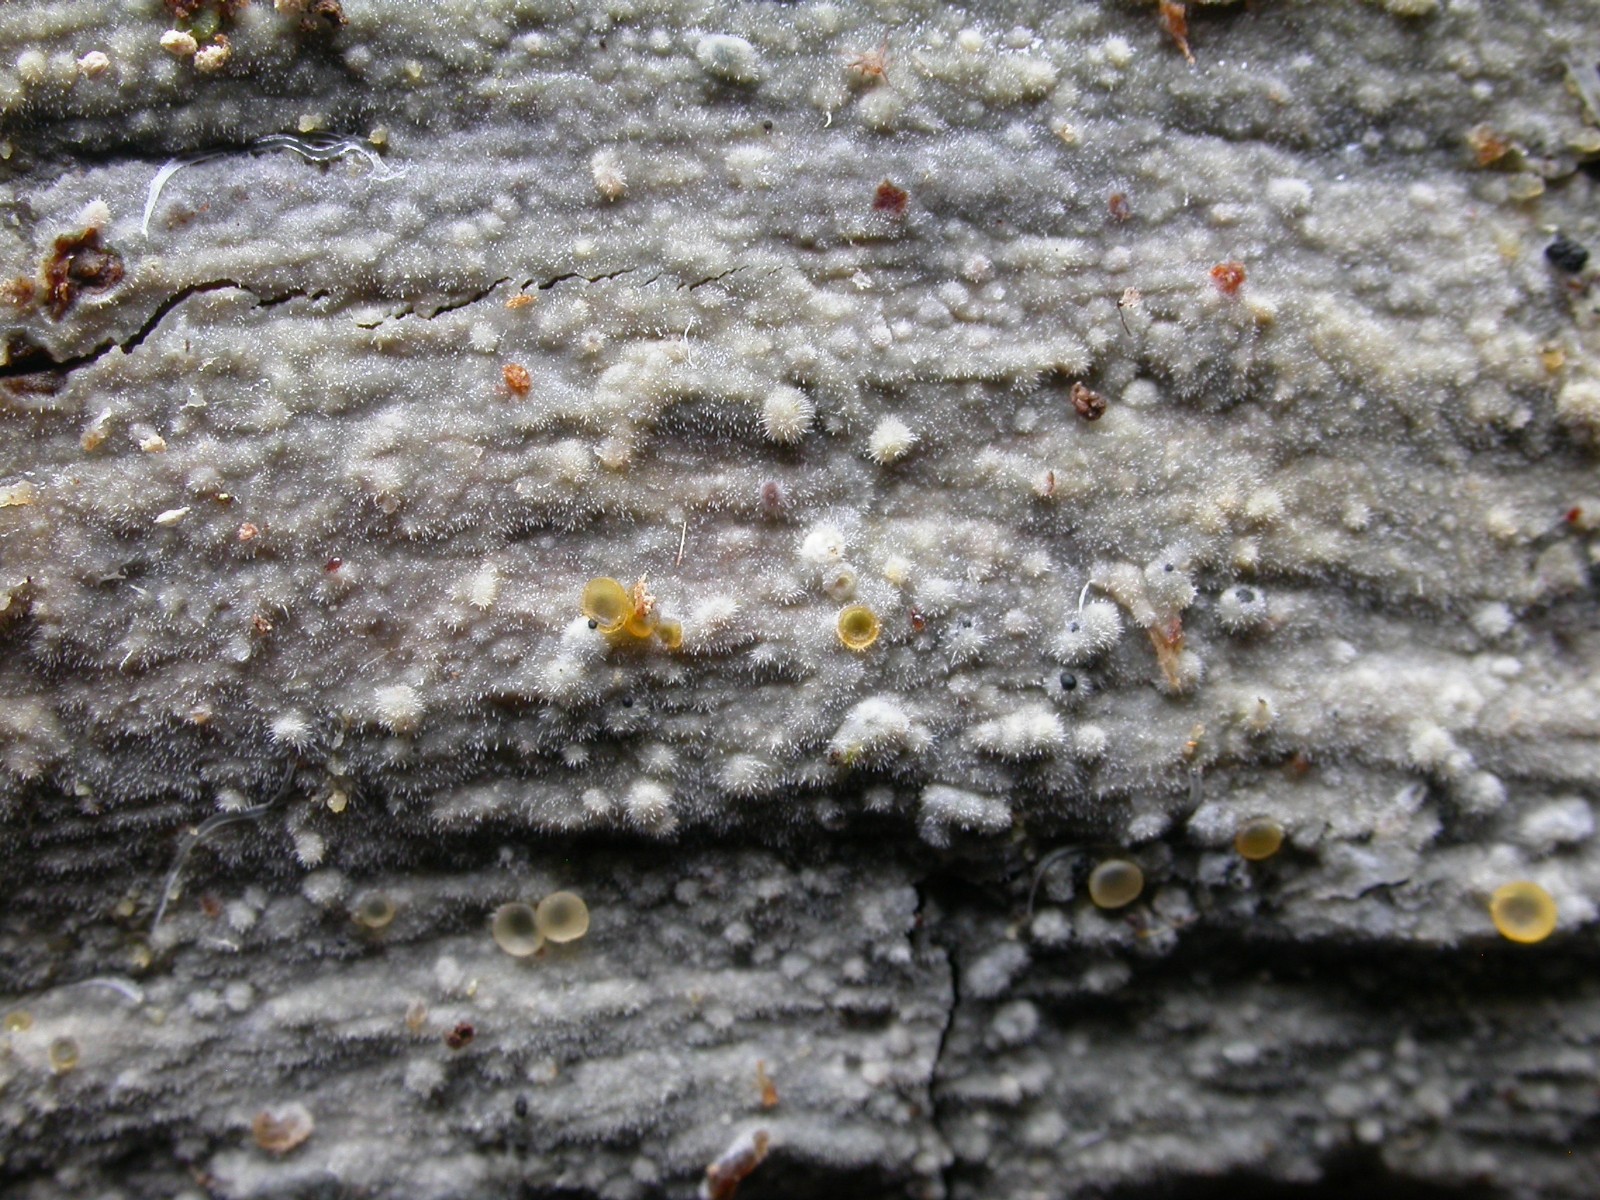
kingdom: Fungi
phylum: Basidiomycota
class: Agaricomycetes
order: Polyporales
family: Meruliaceae
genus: Scopuloides
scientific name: Scopuloides rimosa
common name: dughinde
